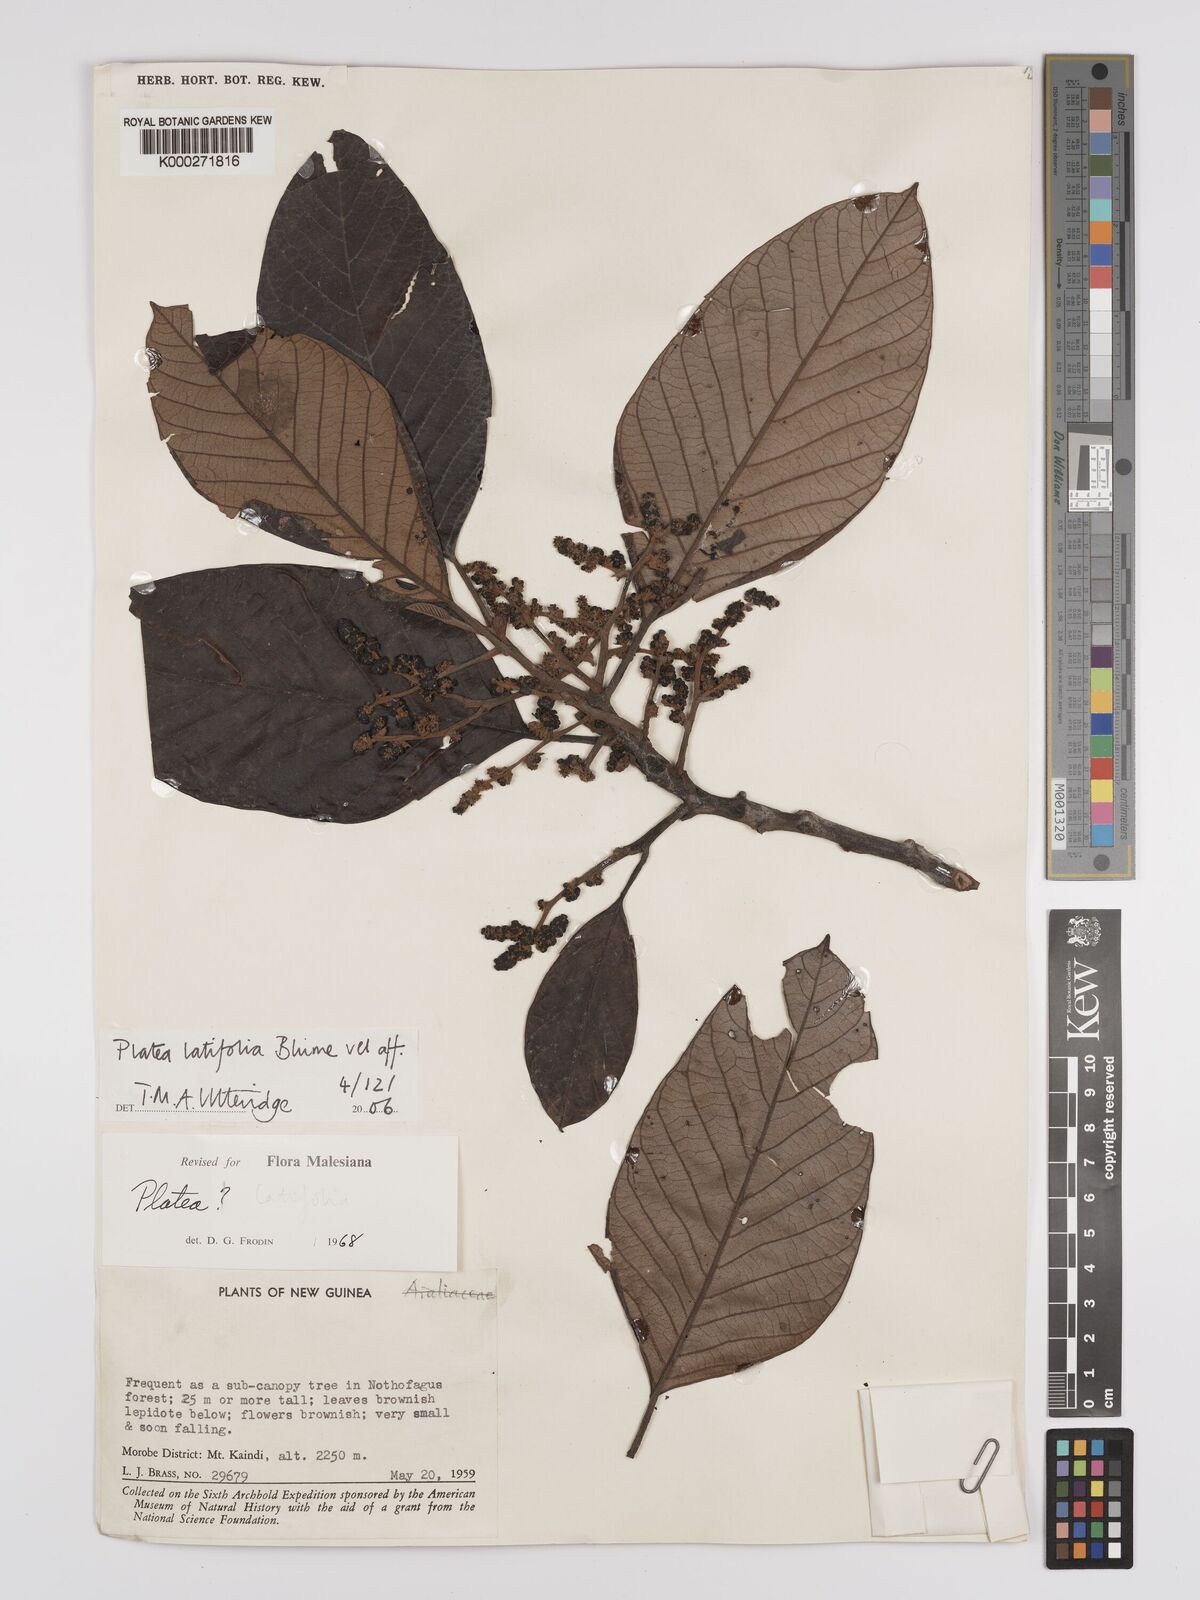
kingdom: Plantae
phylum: Tracheophyta
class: Magnoliopsida
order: Metteniusales
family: Metteniusaceae
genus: Platea
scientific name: Platea latifolia
